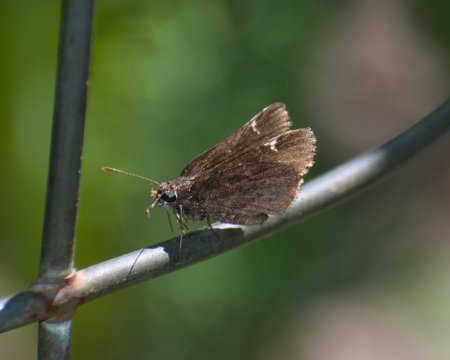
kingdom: Animalia
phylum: Arthropoda
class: Insecta
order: Lepidoptera
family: Hesperiidae
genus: Mastor
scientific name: Mastor vialis
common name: Common Roadside-Skipper
